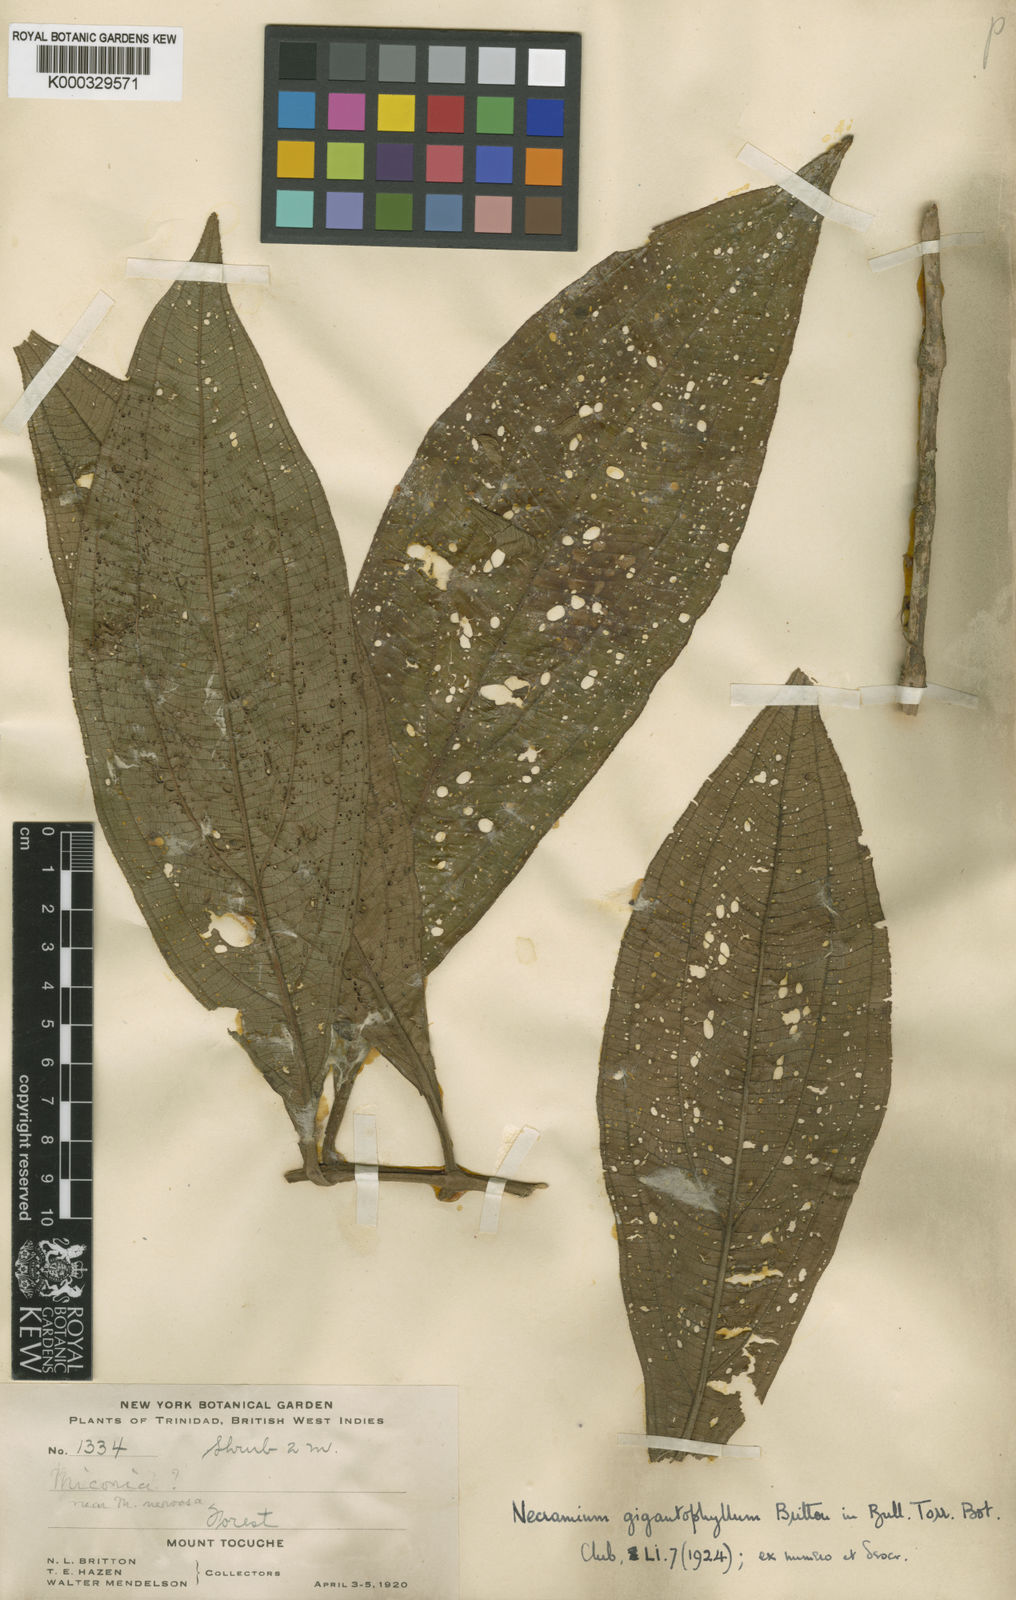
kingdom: Plantae
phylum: Tracheophyta
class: Magnoliopsida
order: Myrtales
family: Melastomataceae
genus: Miconia
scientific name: Miconia gigantophylla
